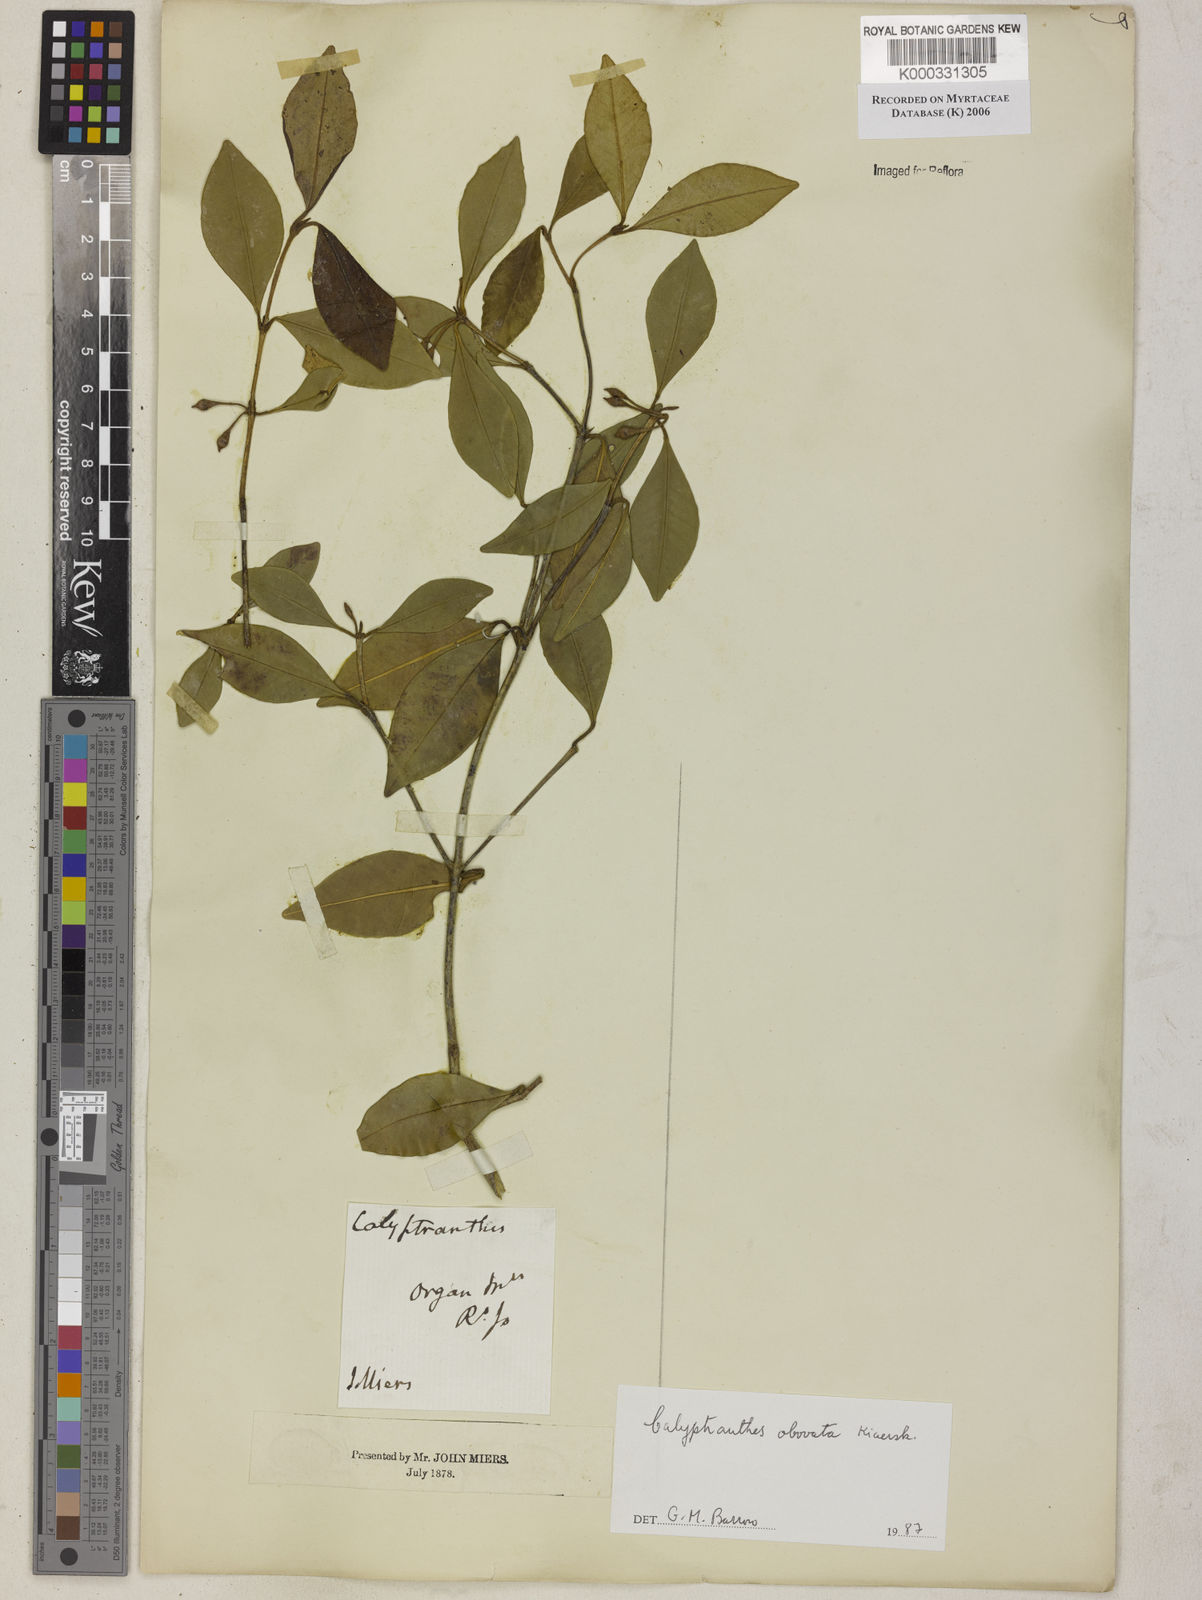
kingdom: Plantae
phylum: Tracheophyta
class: Magnoliopsida
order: Myrtales
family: Myrtaceae
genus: Myrcia
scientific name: Myrcia legrandii
